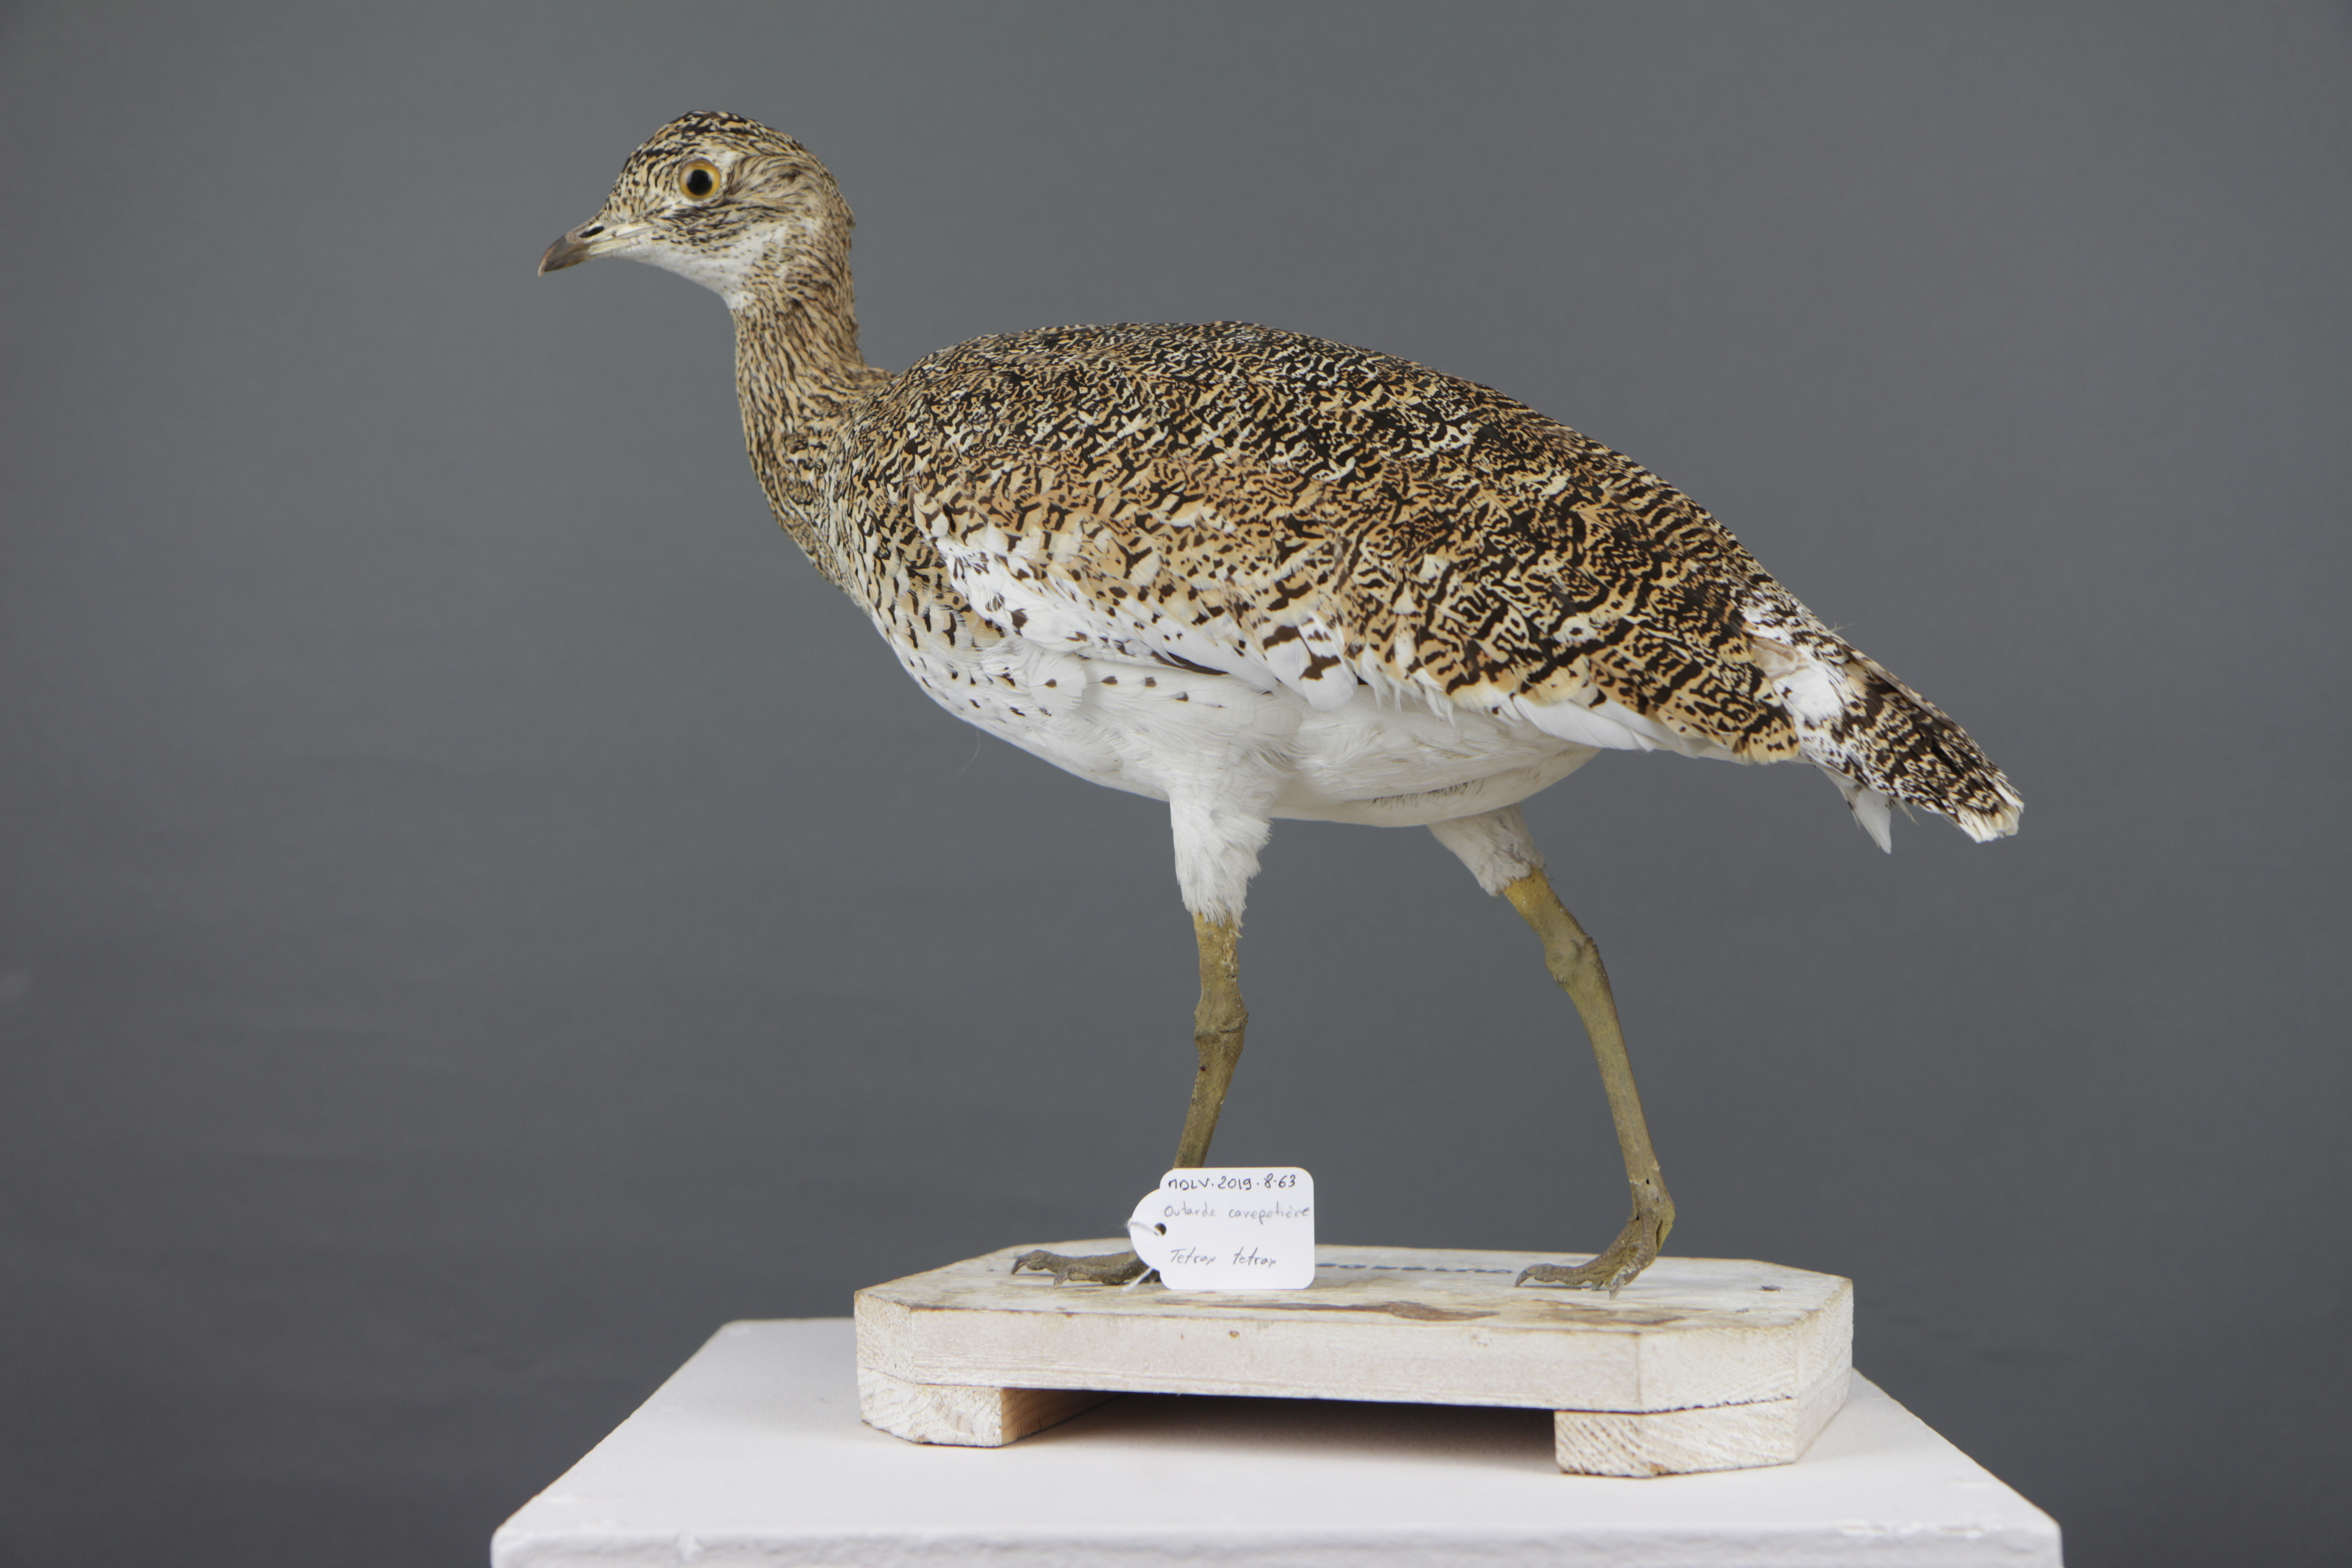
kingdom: Animalia
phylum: Chordata
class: Aves
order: Otidiformes
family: Otididae
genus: Tetrax
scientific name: Tetrax tetrax
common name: Little bustard
